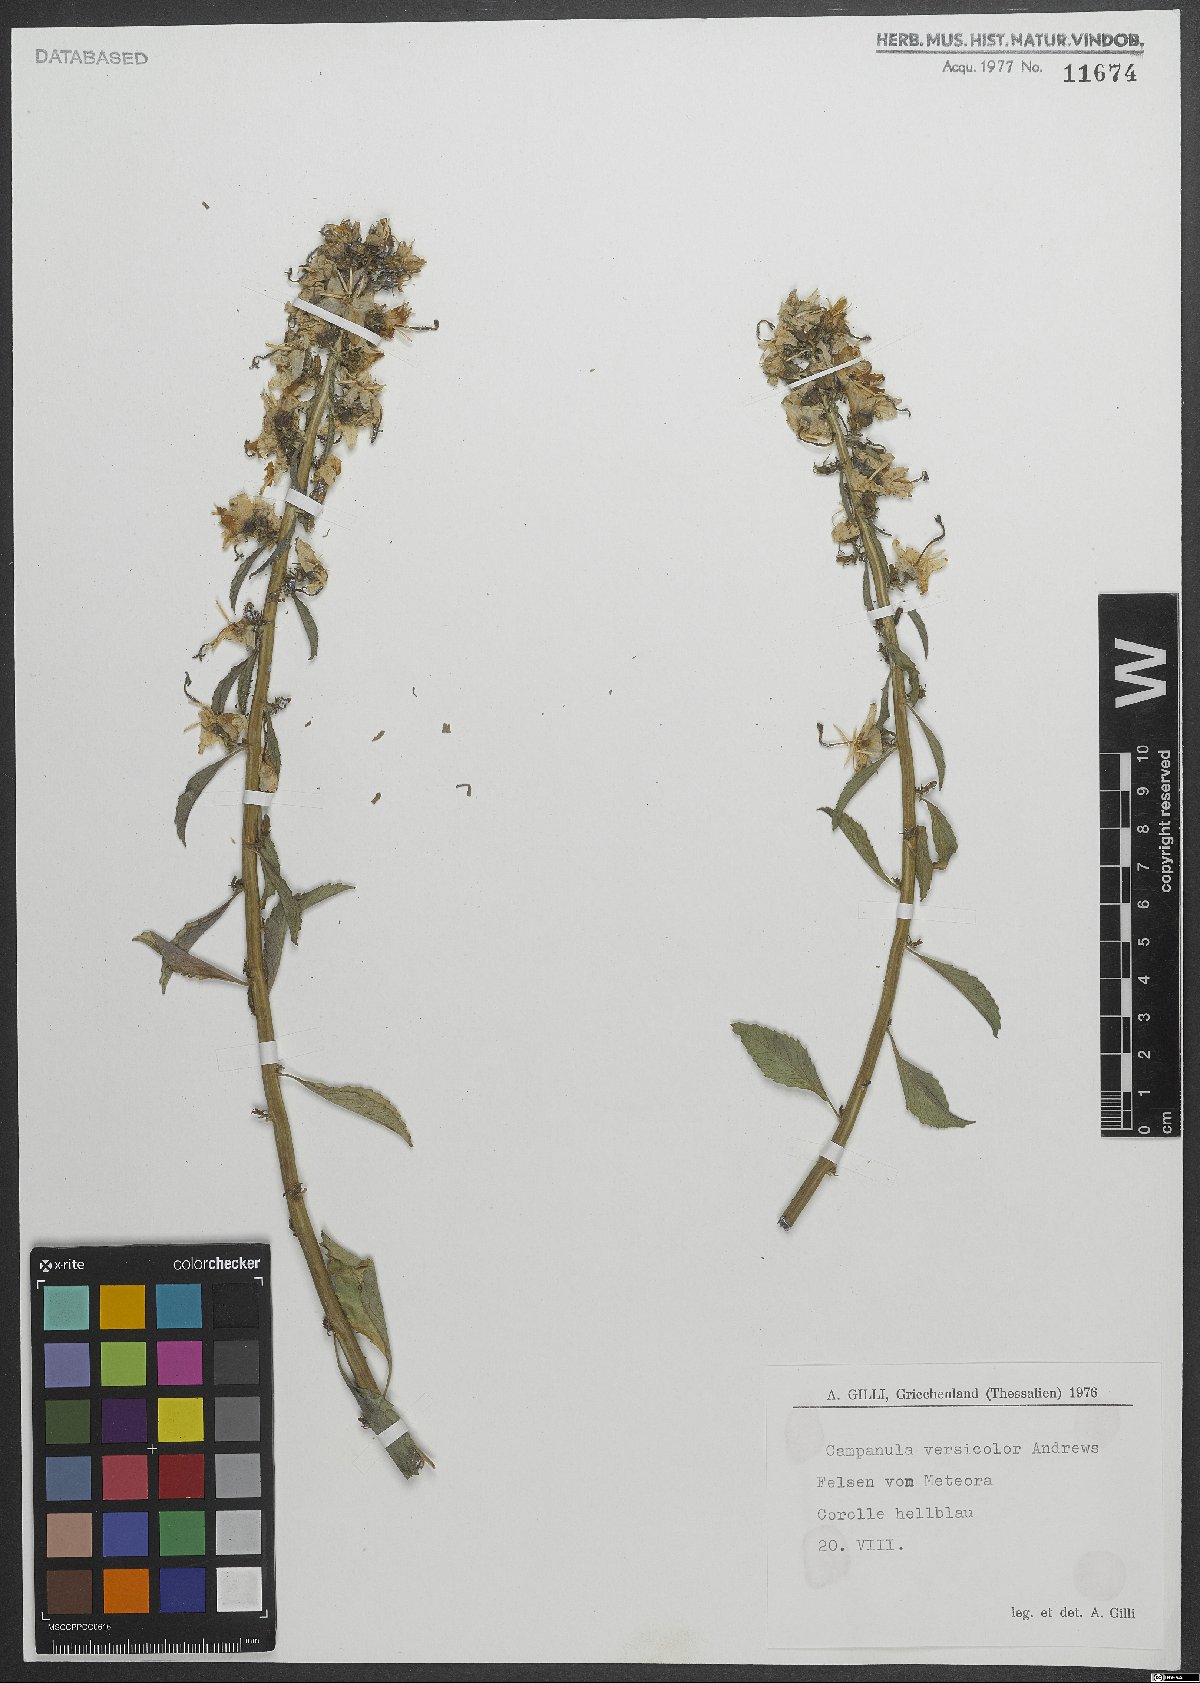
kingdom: Plantae
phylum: Tracheophyta
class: Magnoliopsida
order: Asterales
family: Campanulaceae
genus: Campanula
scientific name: Campanula versicolor
